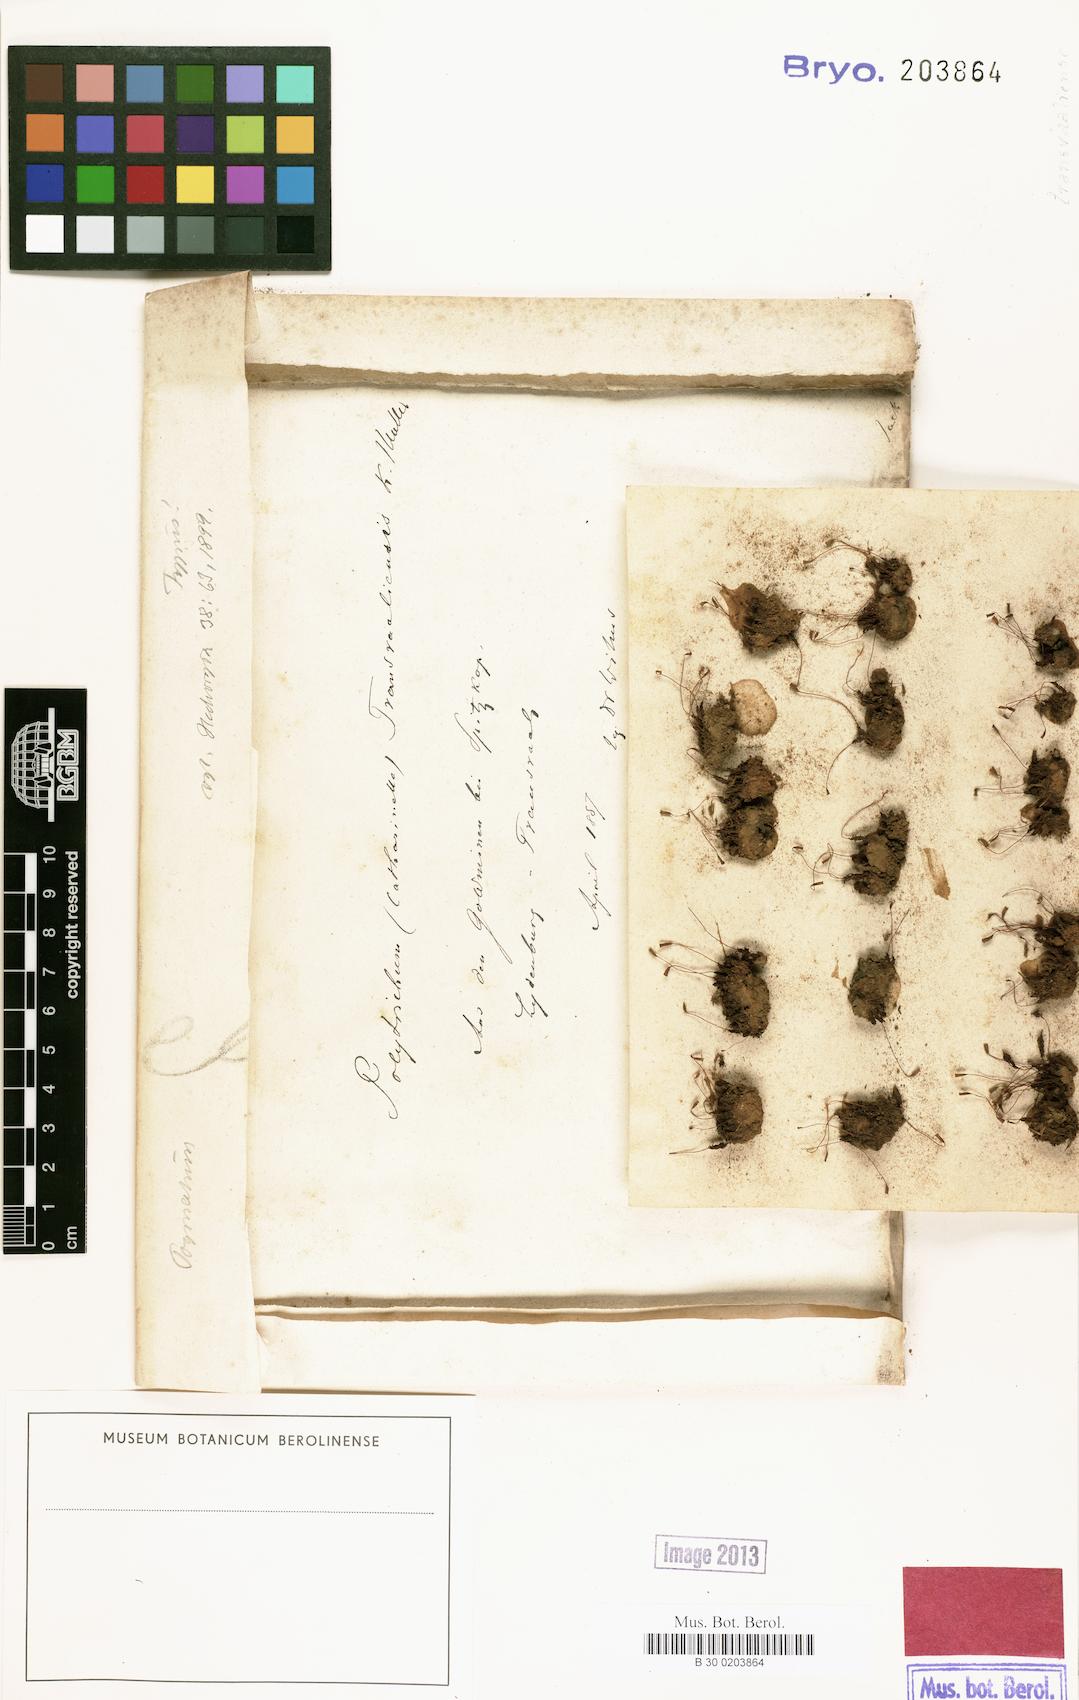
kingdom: Plantae
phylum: Bryophyta
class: Polytrichopsida
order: Polytrichales
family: Polytrichaceae
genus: Pogonatum
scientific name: Pogonatum capense
